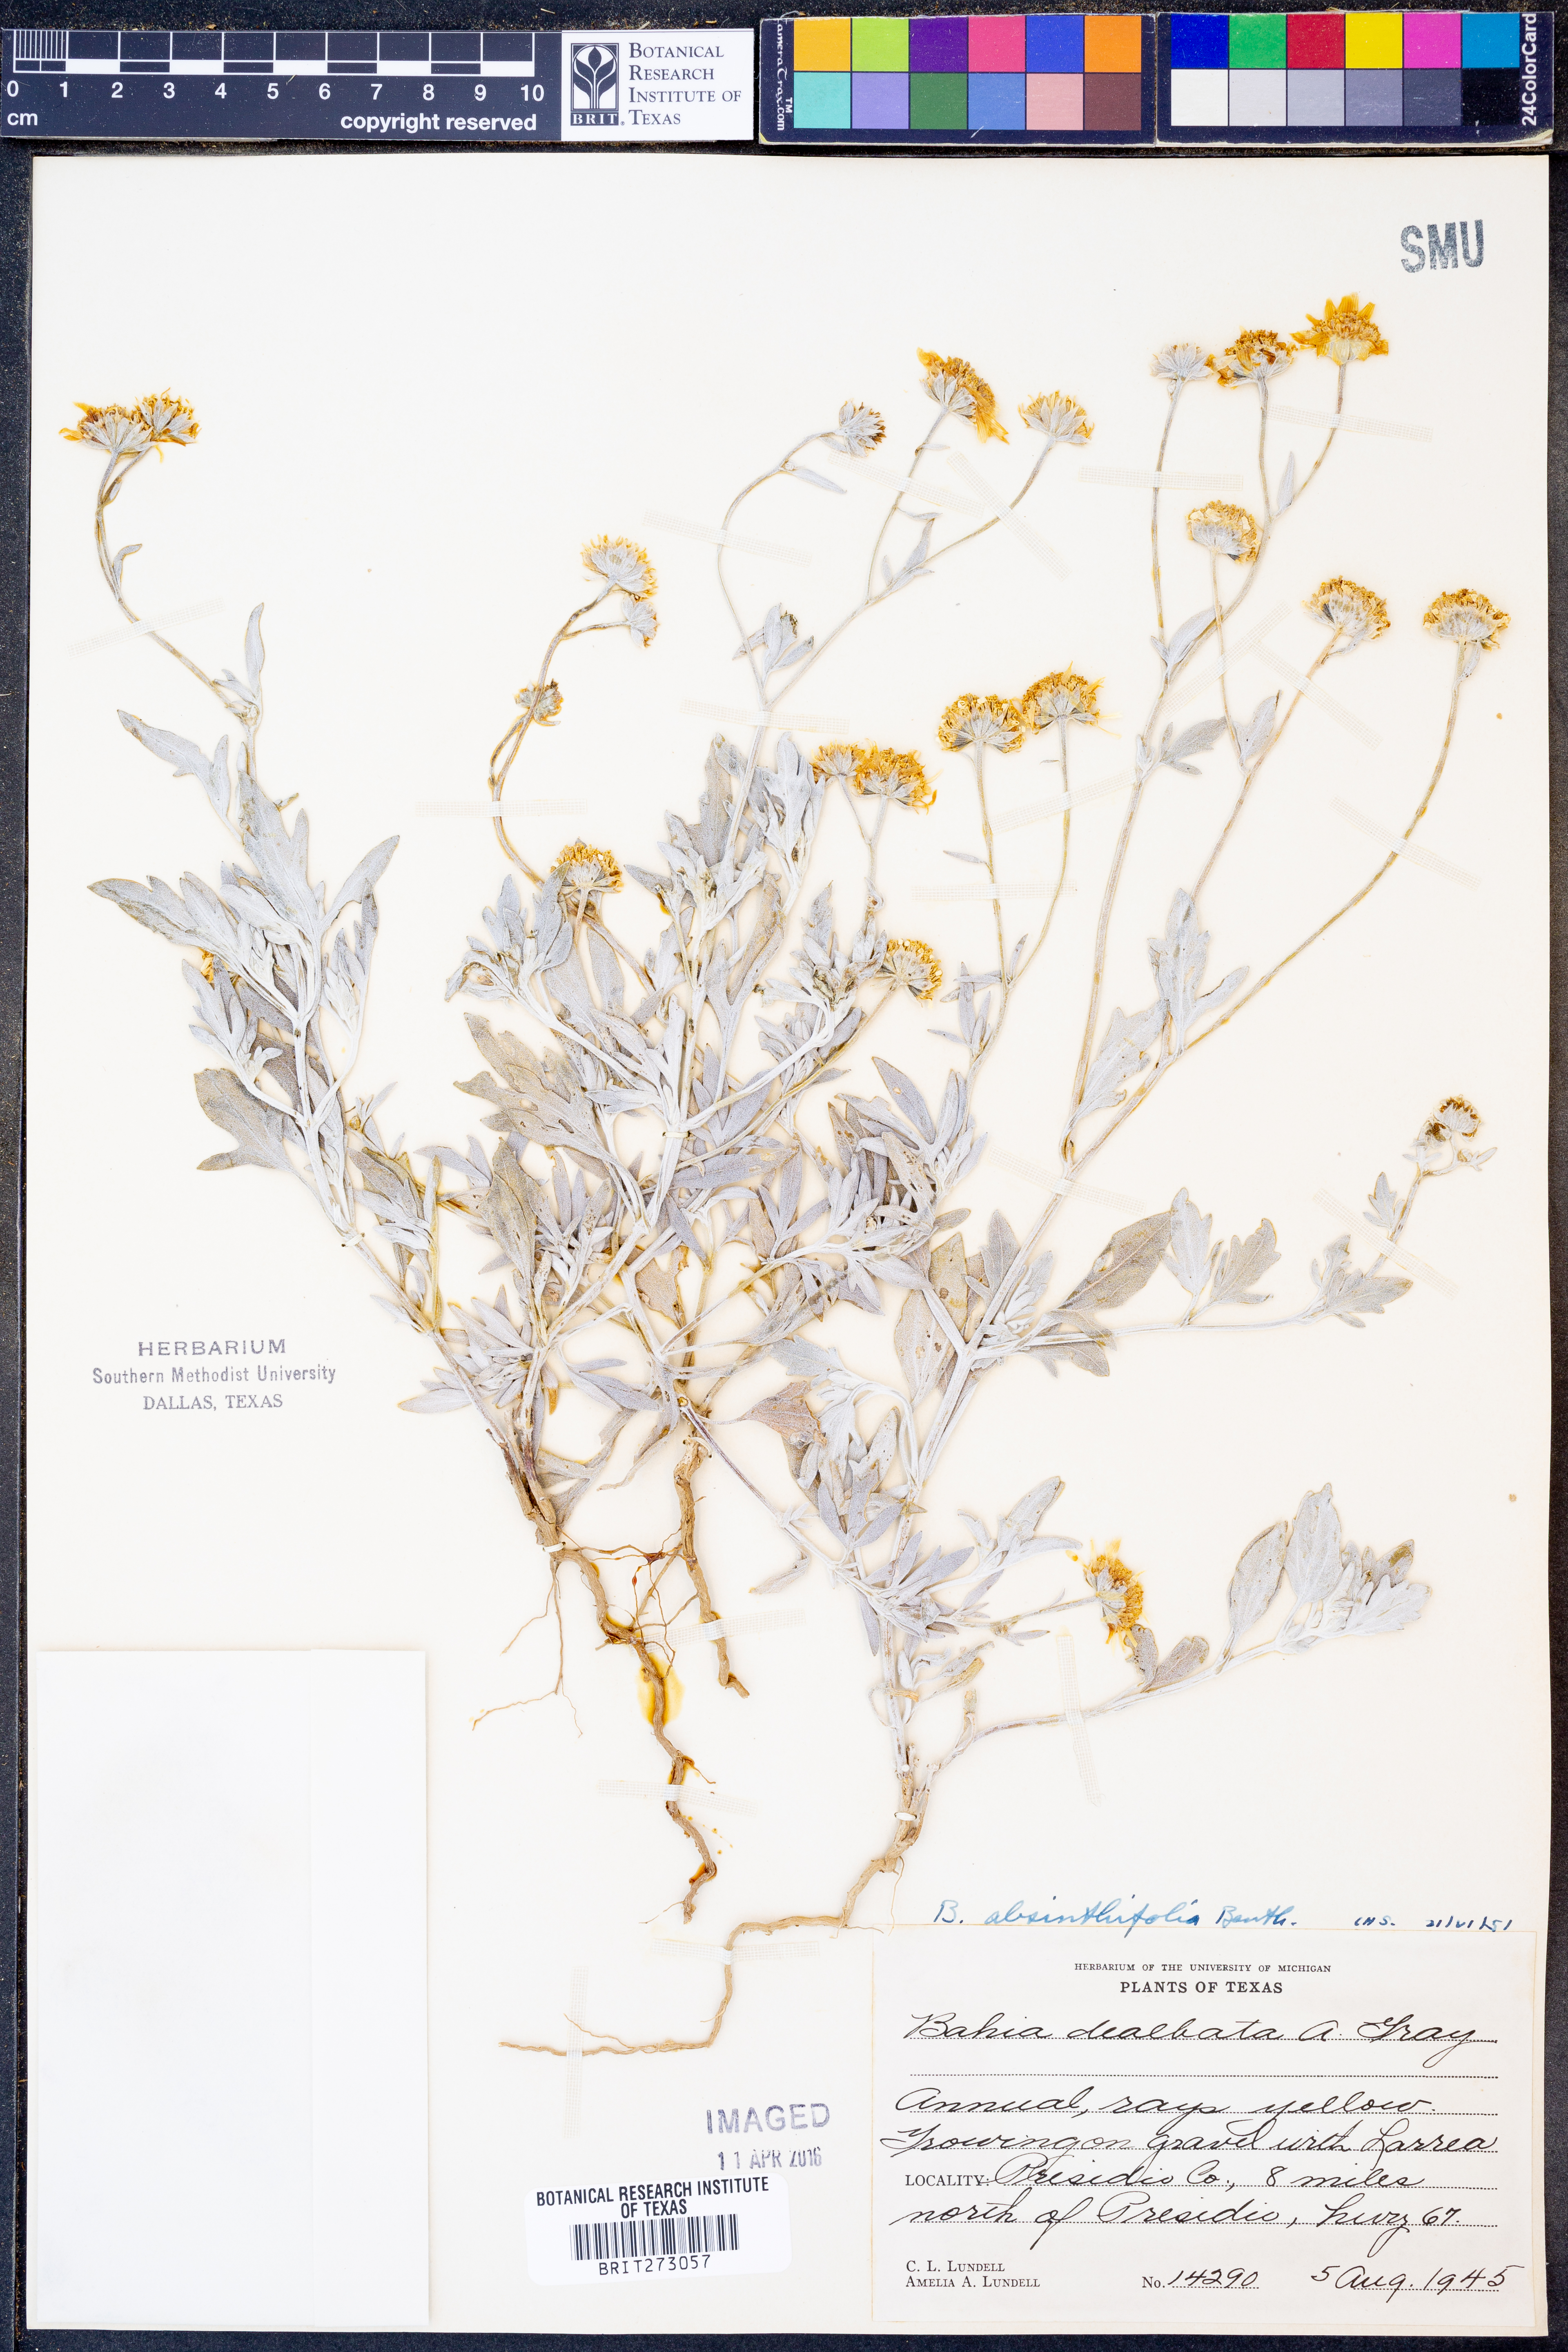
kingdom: Plantae
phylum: Tracheophyta
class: Magnoliopsida
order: Asterales
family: Asteraceae
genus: Picradeniopsis
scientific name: Picradeniopsis absinthifolia
